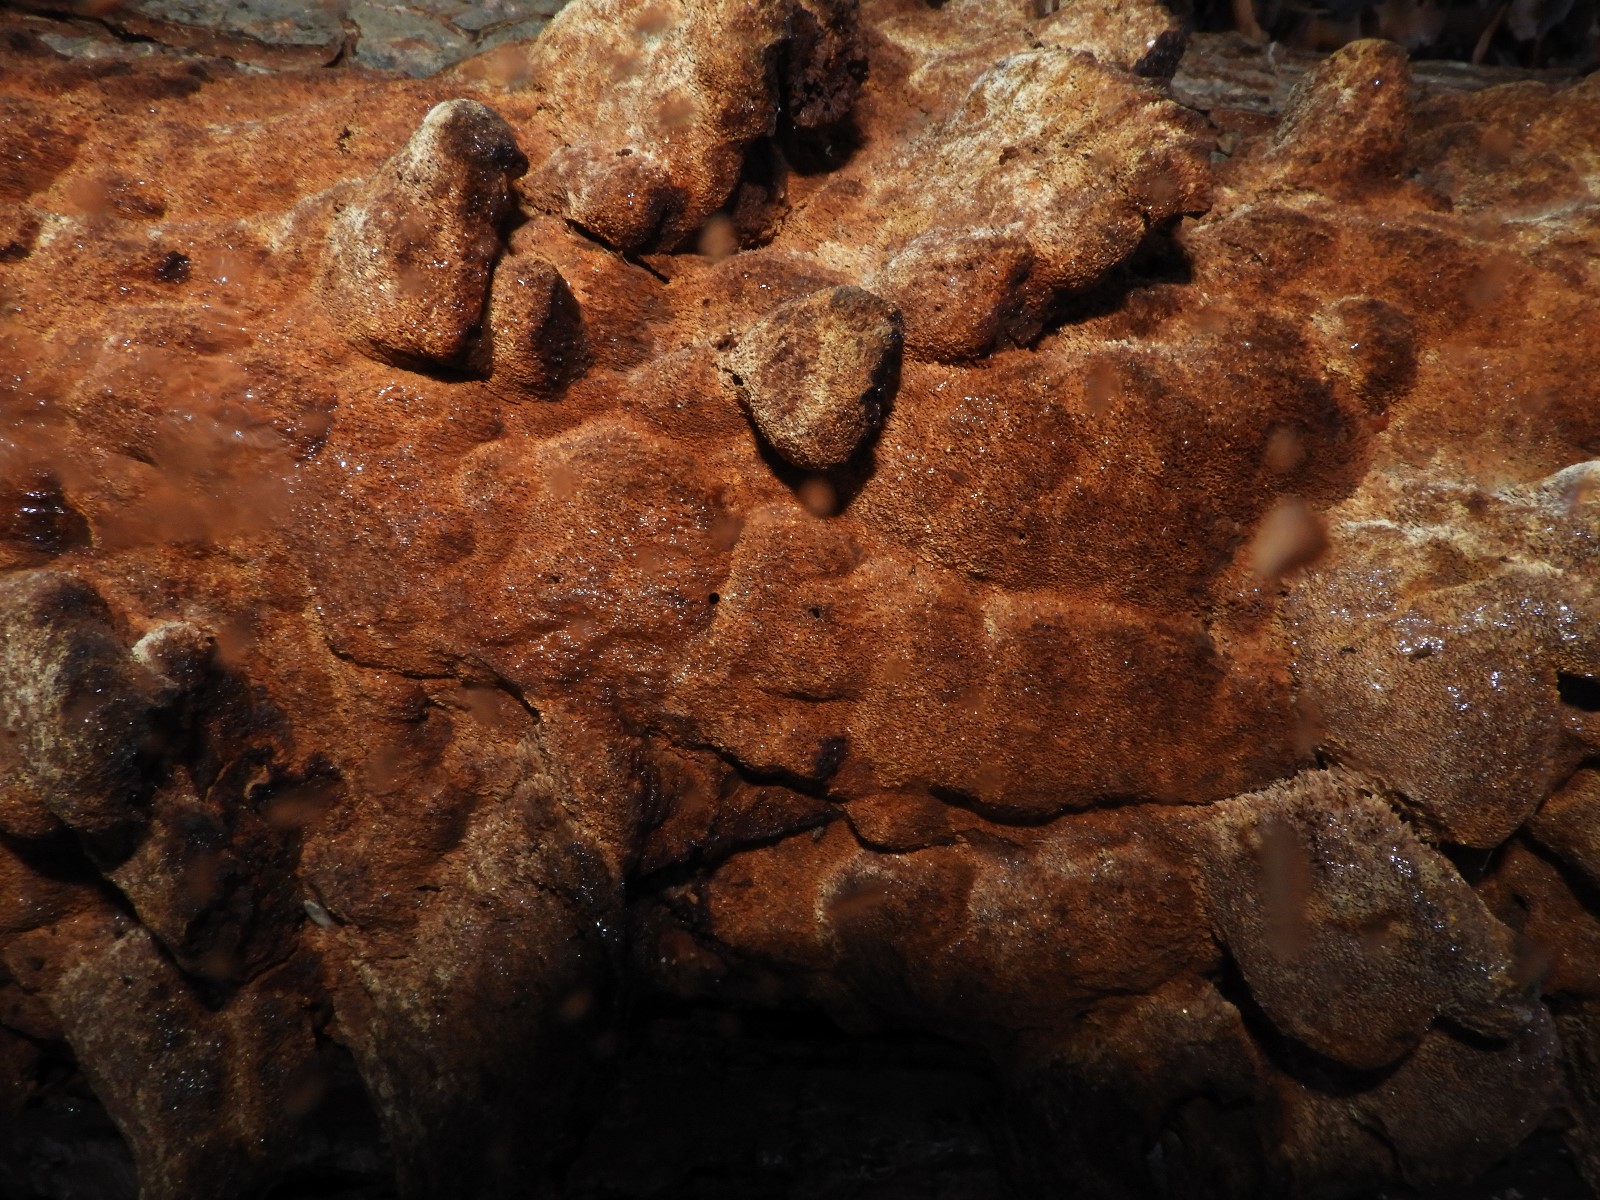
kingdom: Fungi
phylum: Basidiomycota
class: Agaricomycetes
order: Hymenochaetales
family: Hymenochaetaceae
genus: Xanthoporia
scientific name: Xanthoporia radiata
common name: elle-spejlporesvamp
